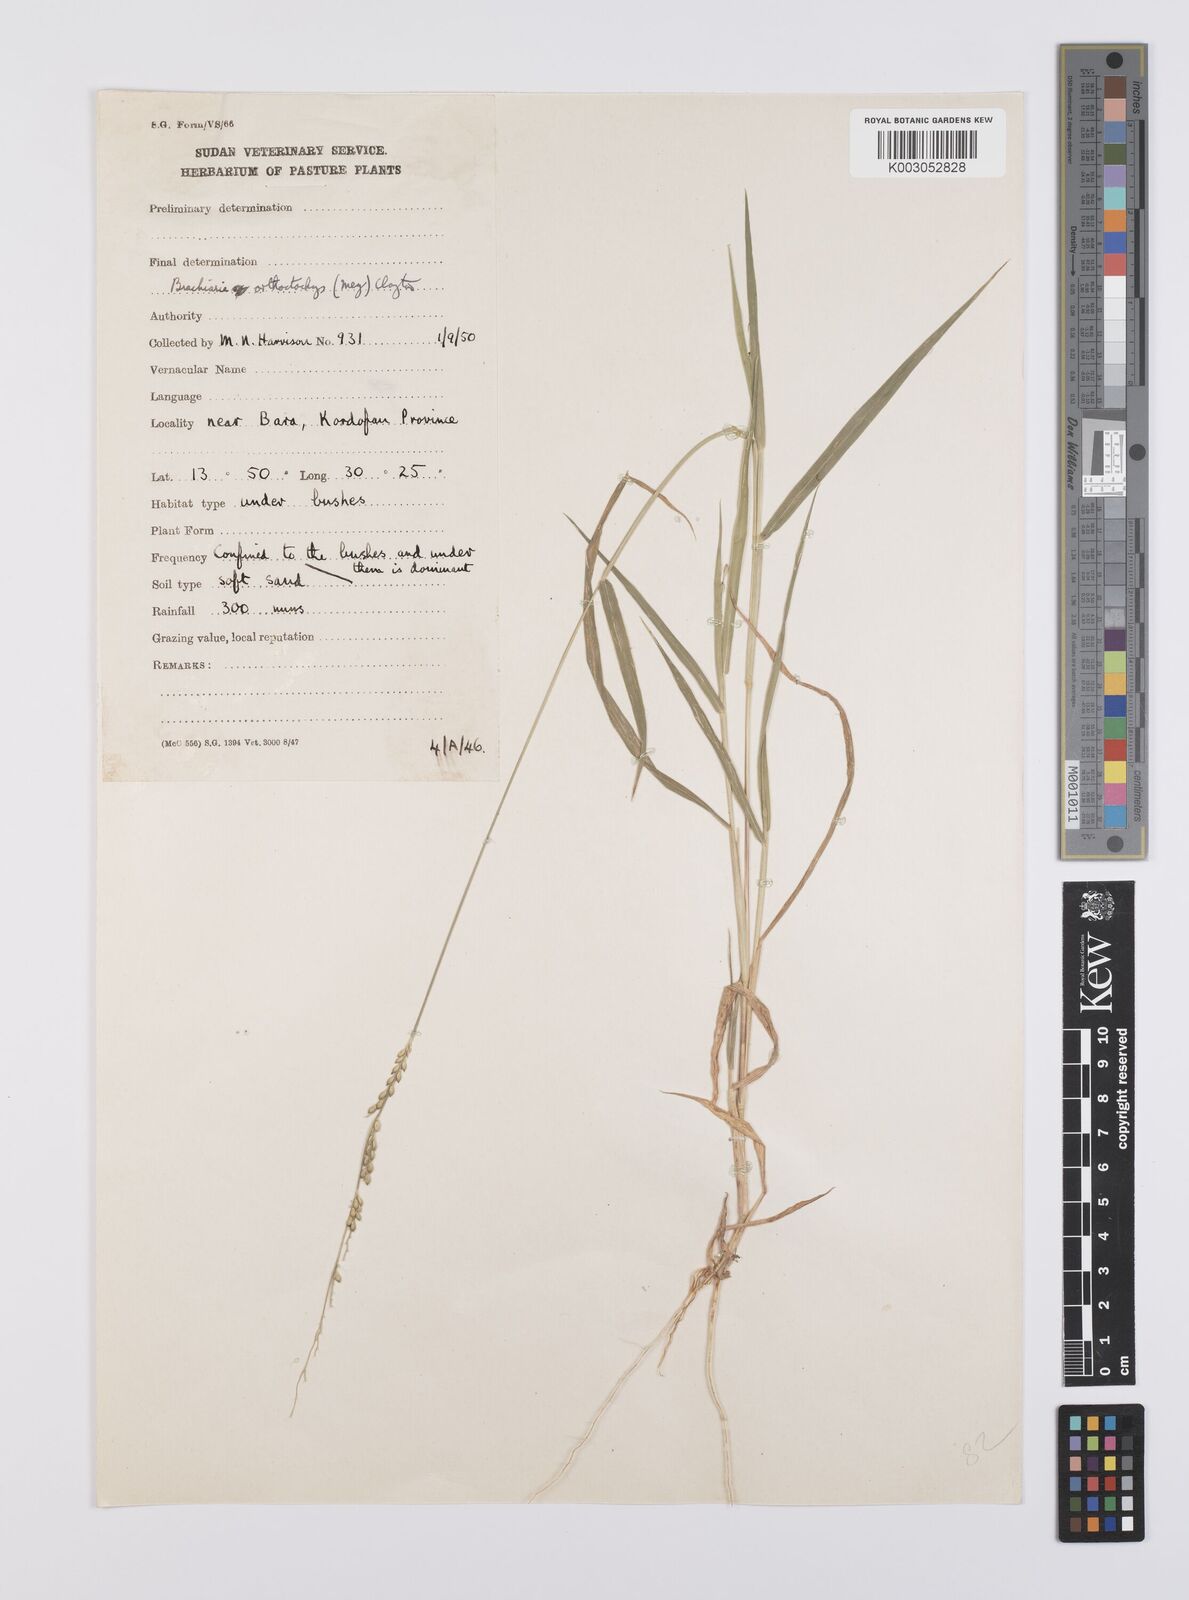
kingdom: Plantae
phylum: Tracheophyta
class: Liliopsida
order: Poales
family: Poaceae
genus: Urochloa
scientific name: Urochloa orthostachys
